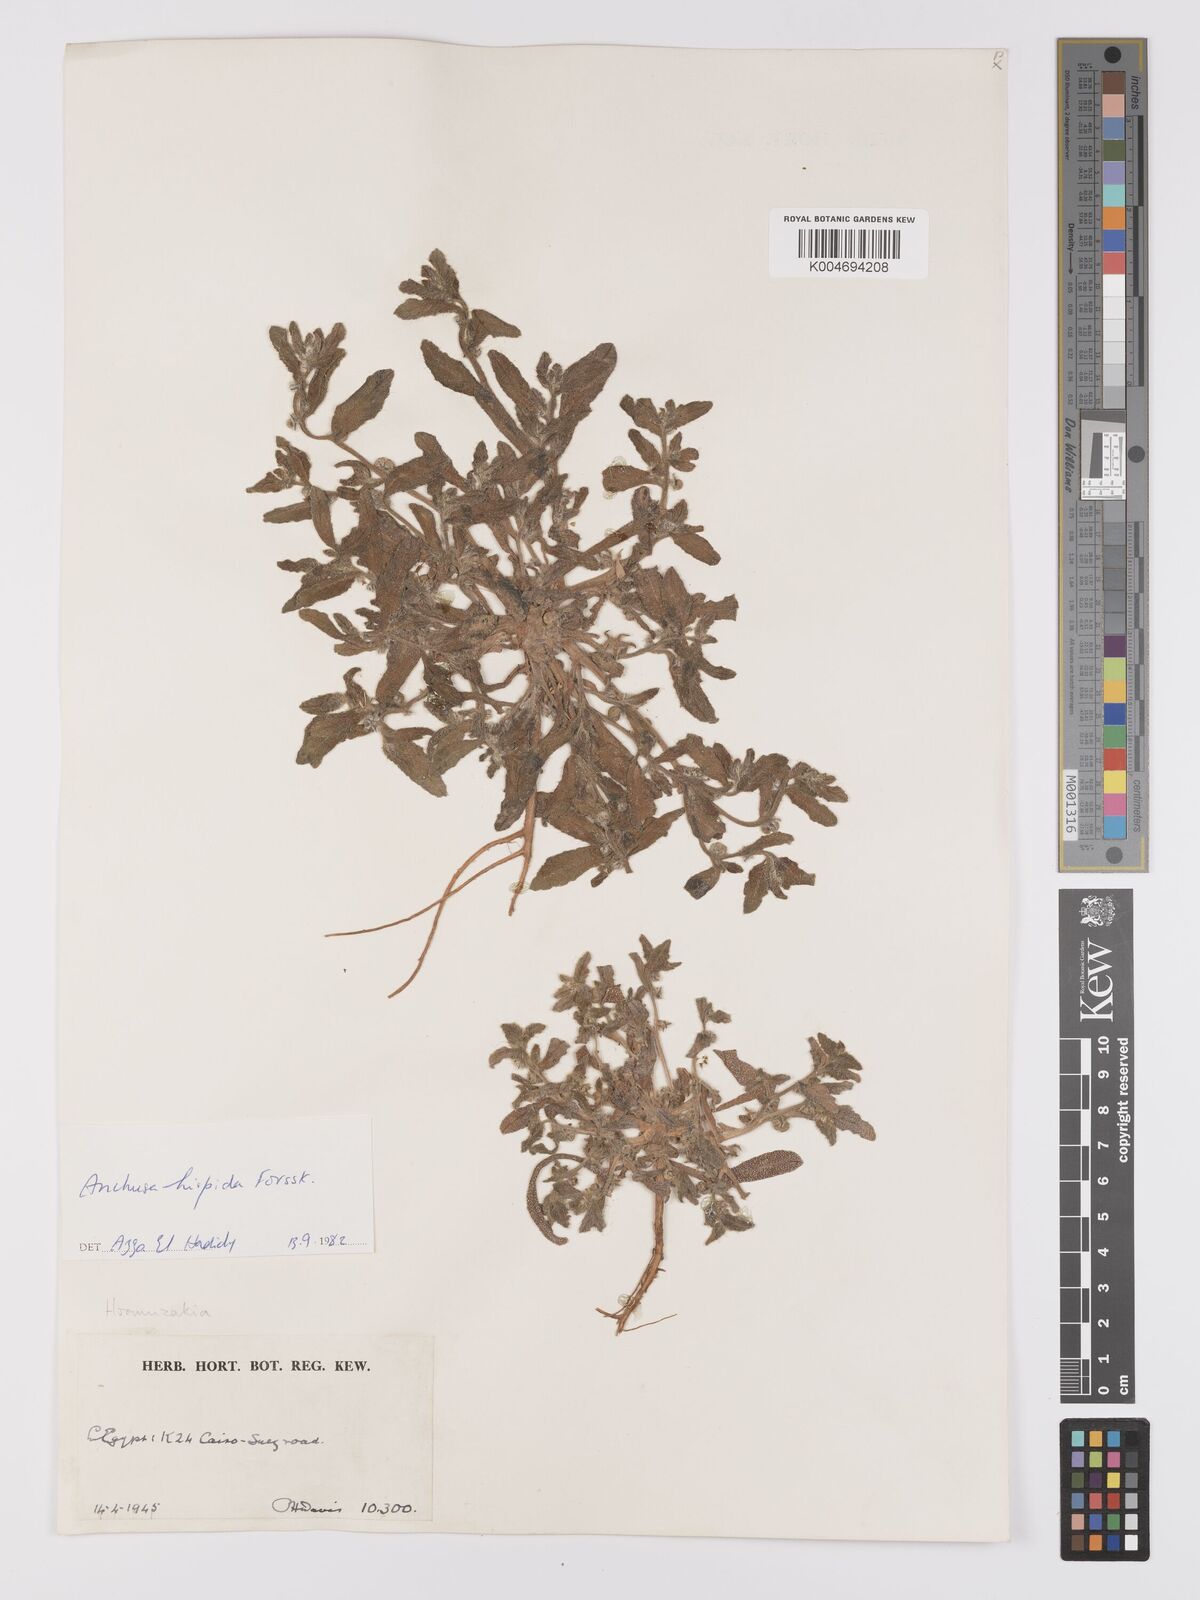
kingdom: Plantae
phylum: Tracheophyta
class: Magnoliopsida
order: Boraginales
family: Boraginaceae
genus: Gastrocotyle
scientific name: Gastrocotyle hispida
